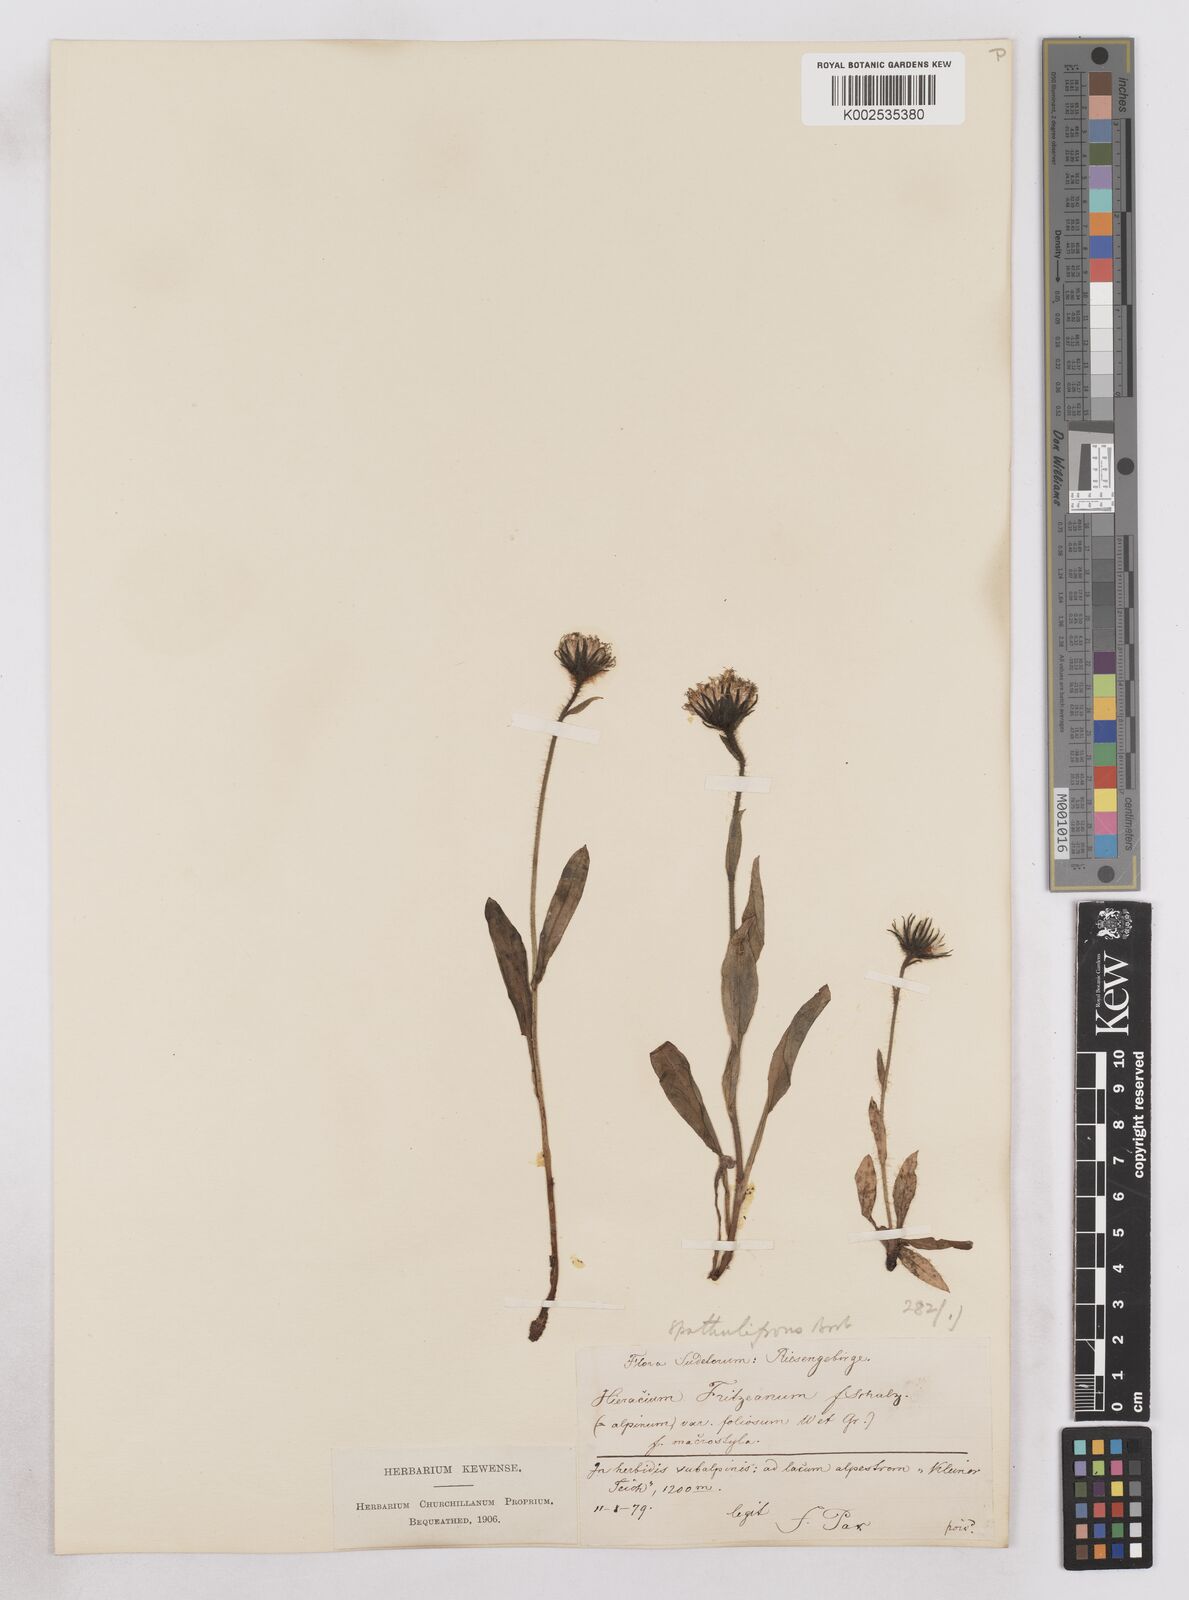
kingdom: Plantae
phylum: Tracheophyta
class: Magnoliopsida
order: Asterales
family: Asteraceae
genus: Hieracium
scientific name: Hieracium fritzei
